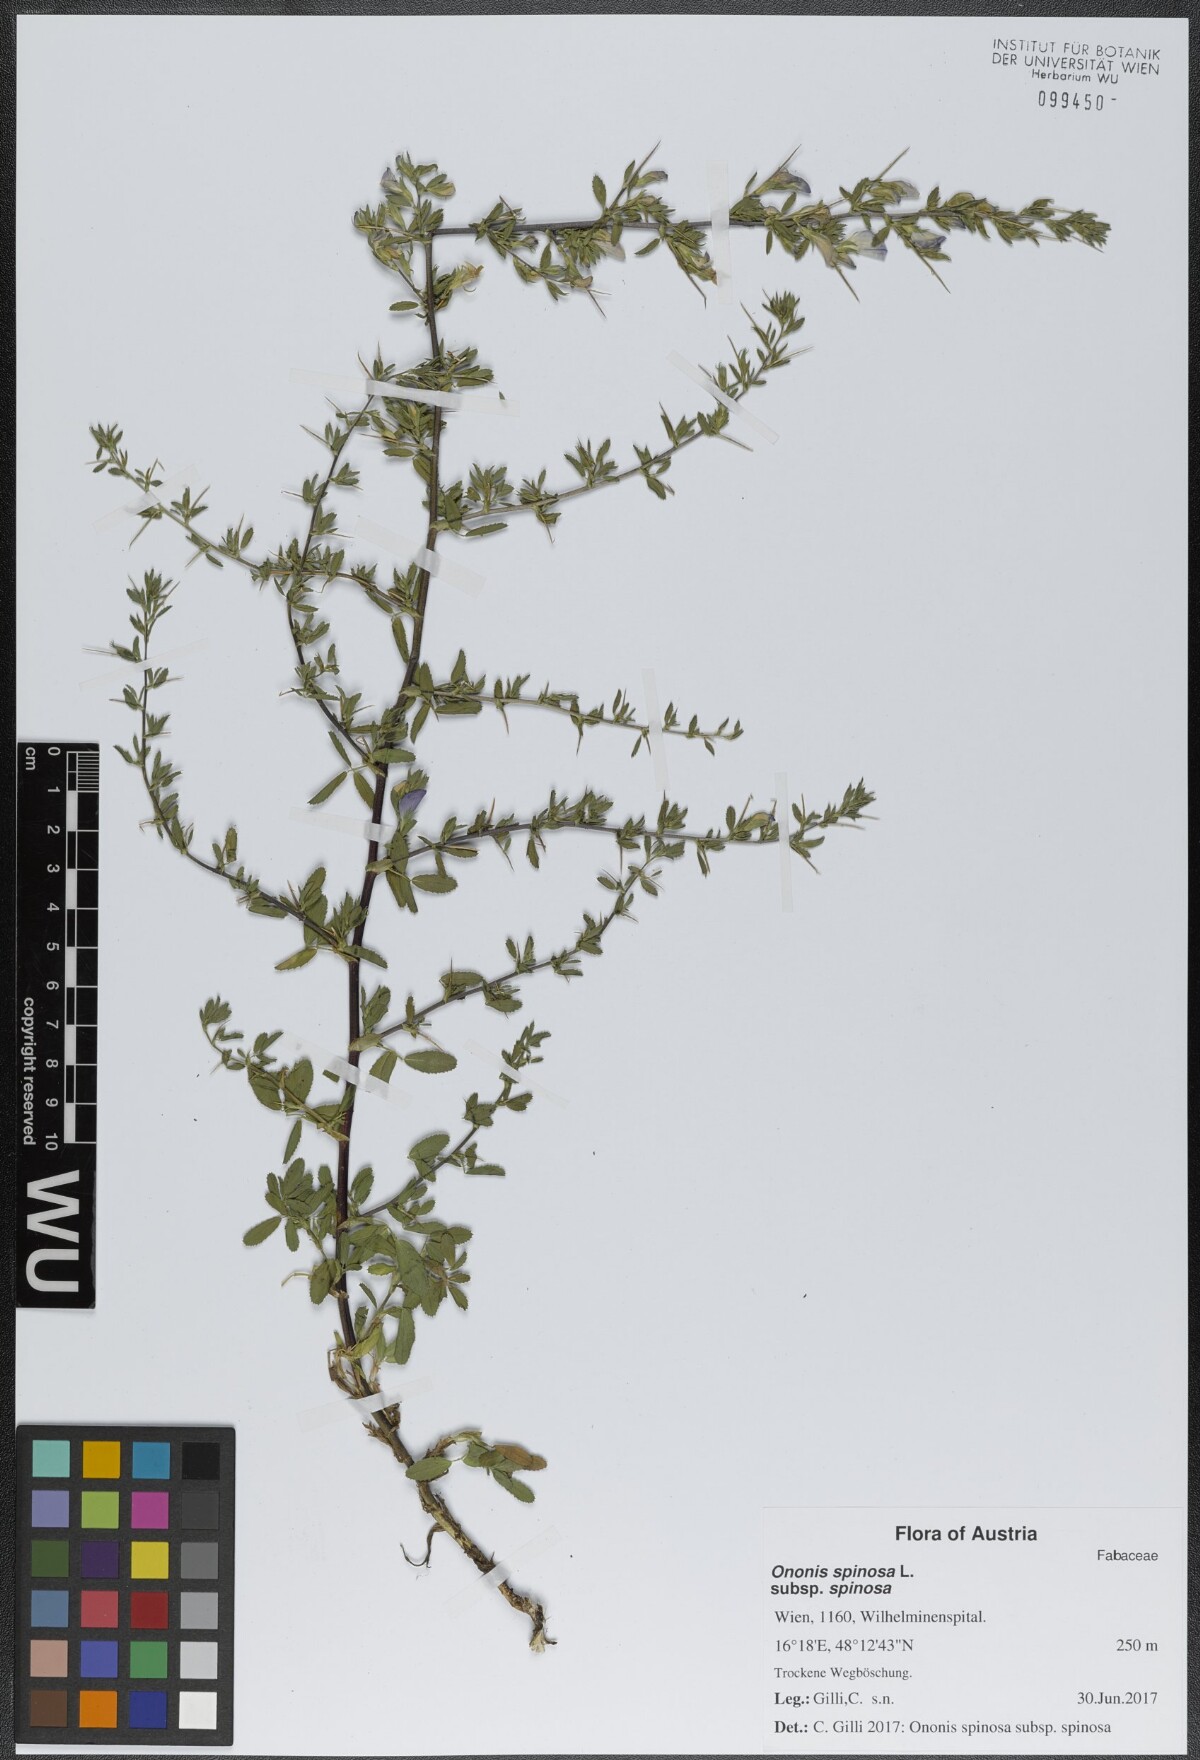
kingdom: Plantae
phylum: Tracheophyta
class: Magnoliopsida
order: Fabales
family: Fabaceae
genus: Ononis
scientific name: Ononis spinosa
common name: Spiny restharrow
